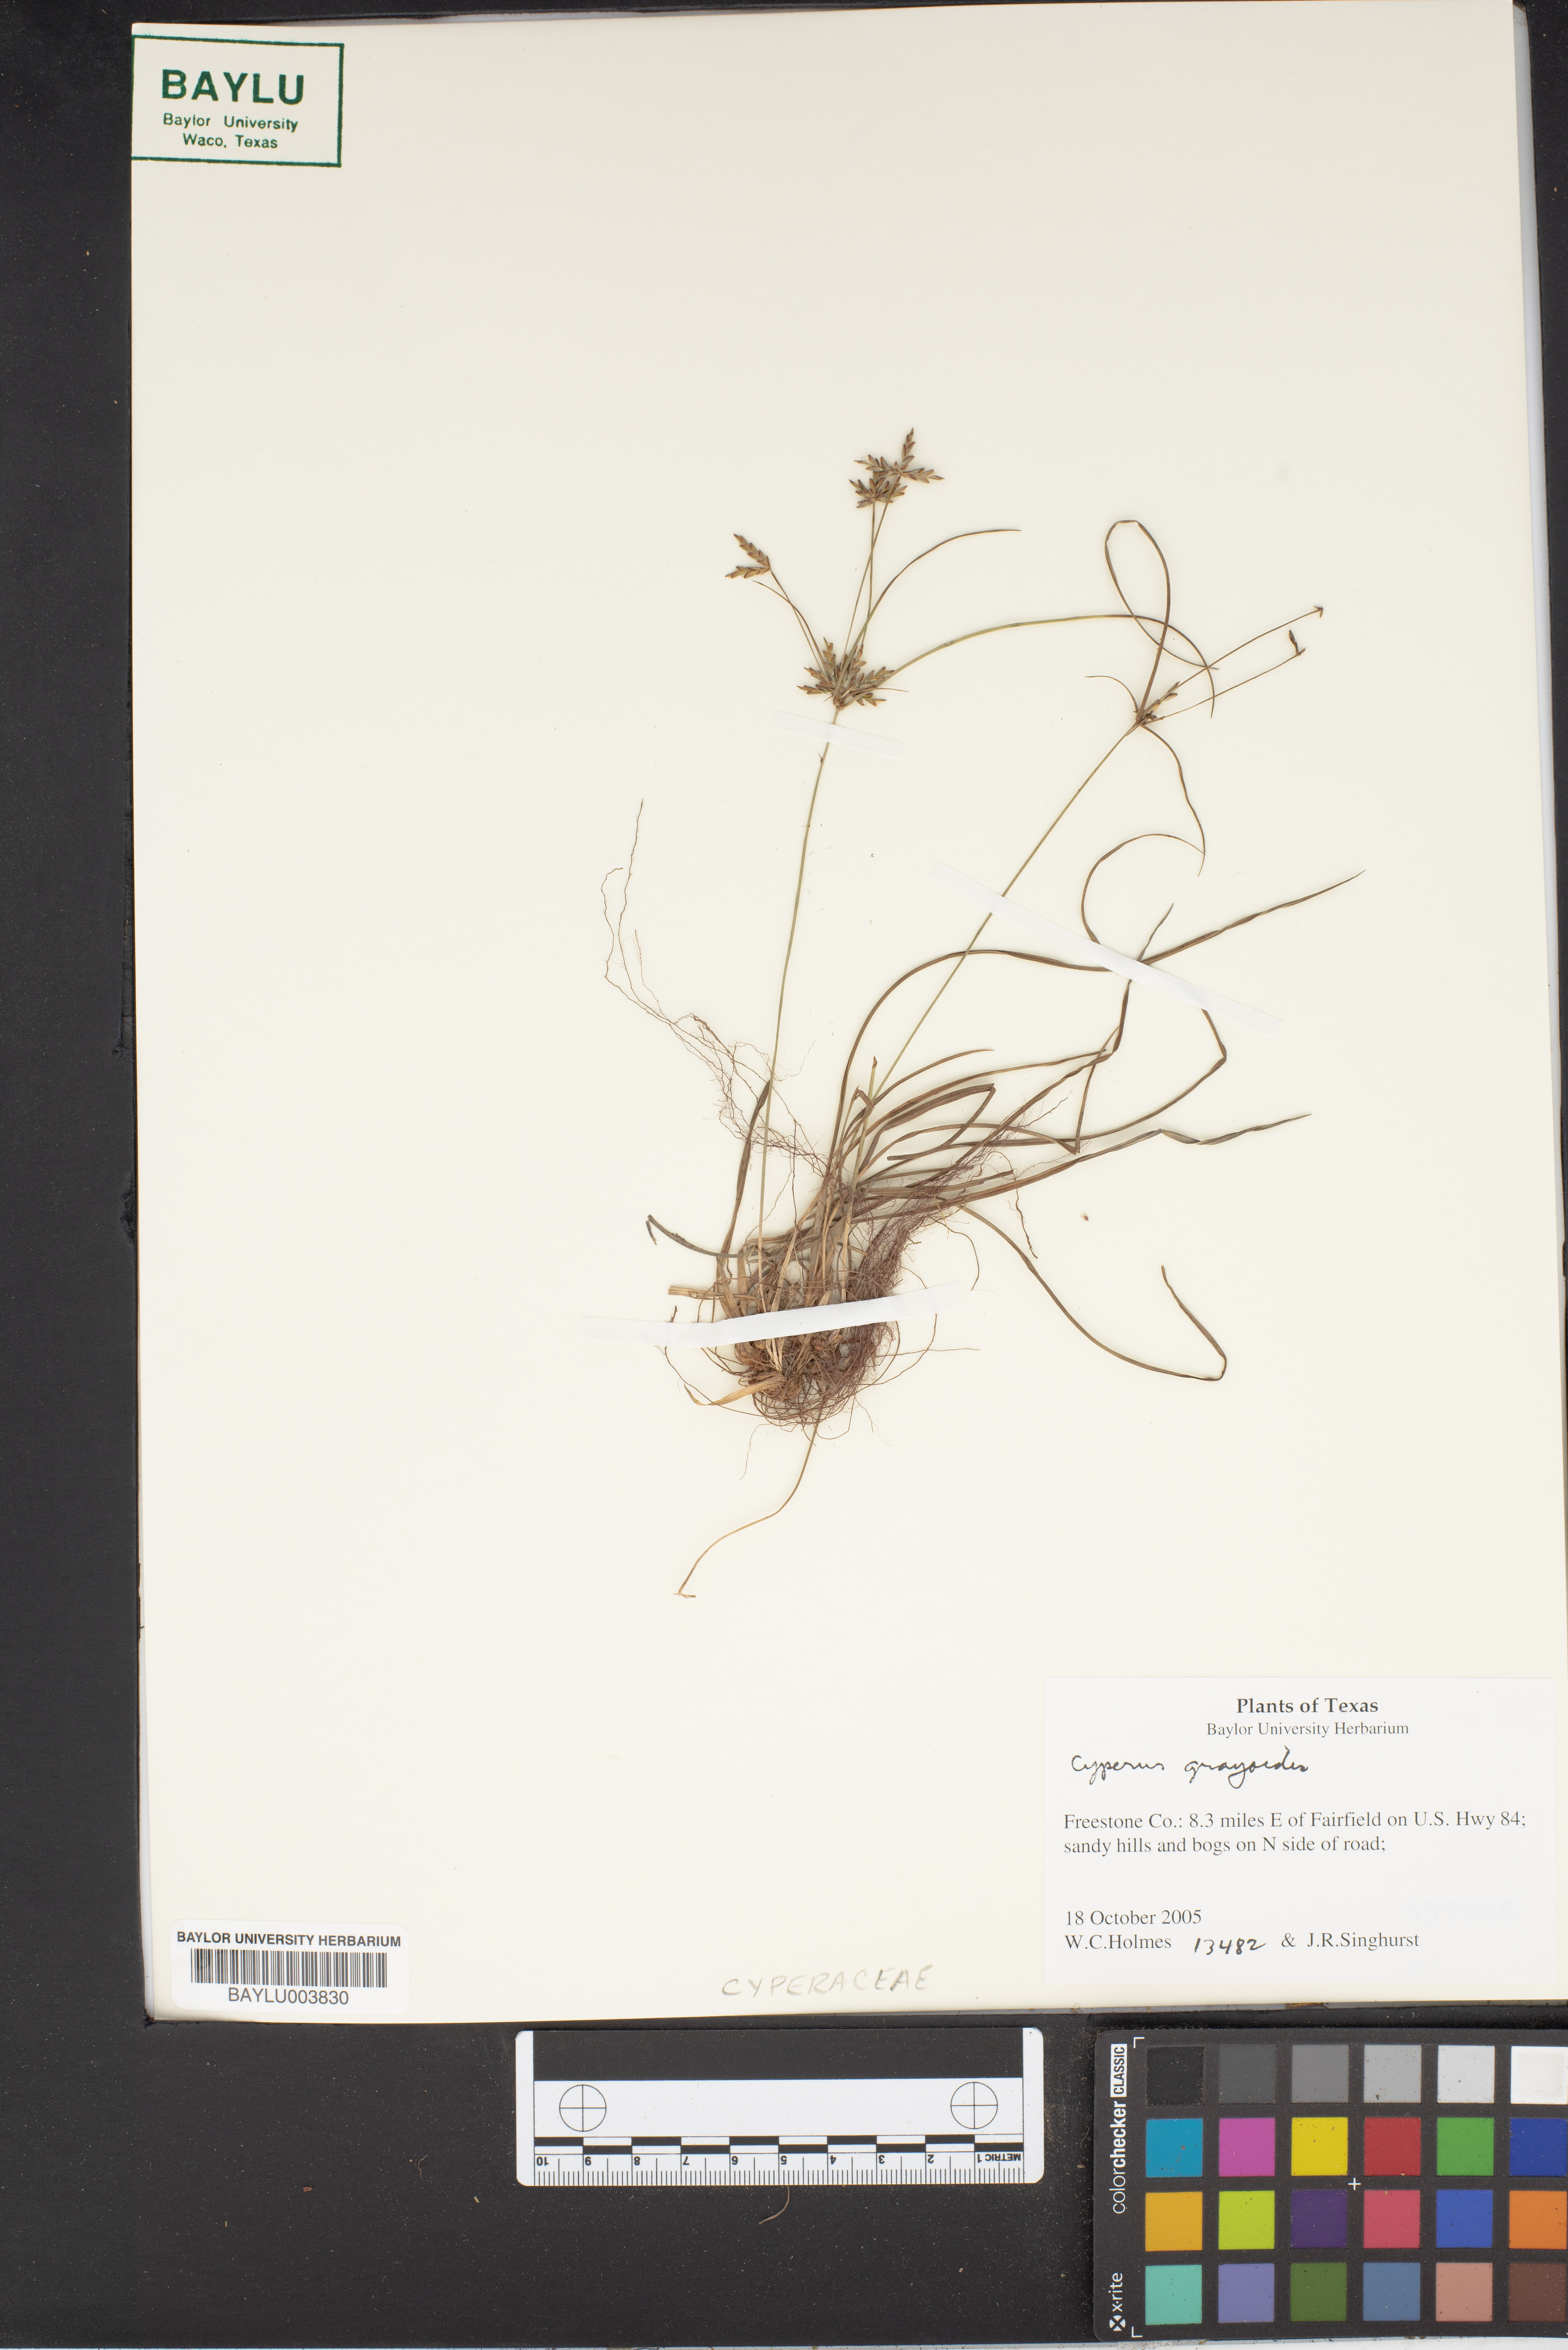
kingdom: Plantae
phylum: Tracheophyta
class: Liliopsida
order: Poales
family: Cyperaceae
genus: Cyperus
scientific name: Cyperus grayioides
